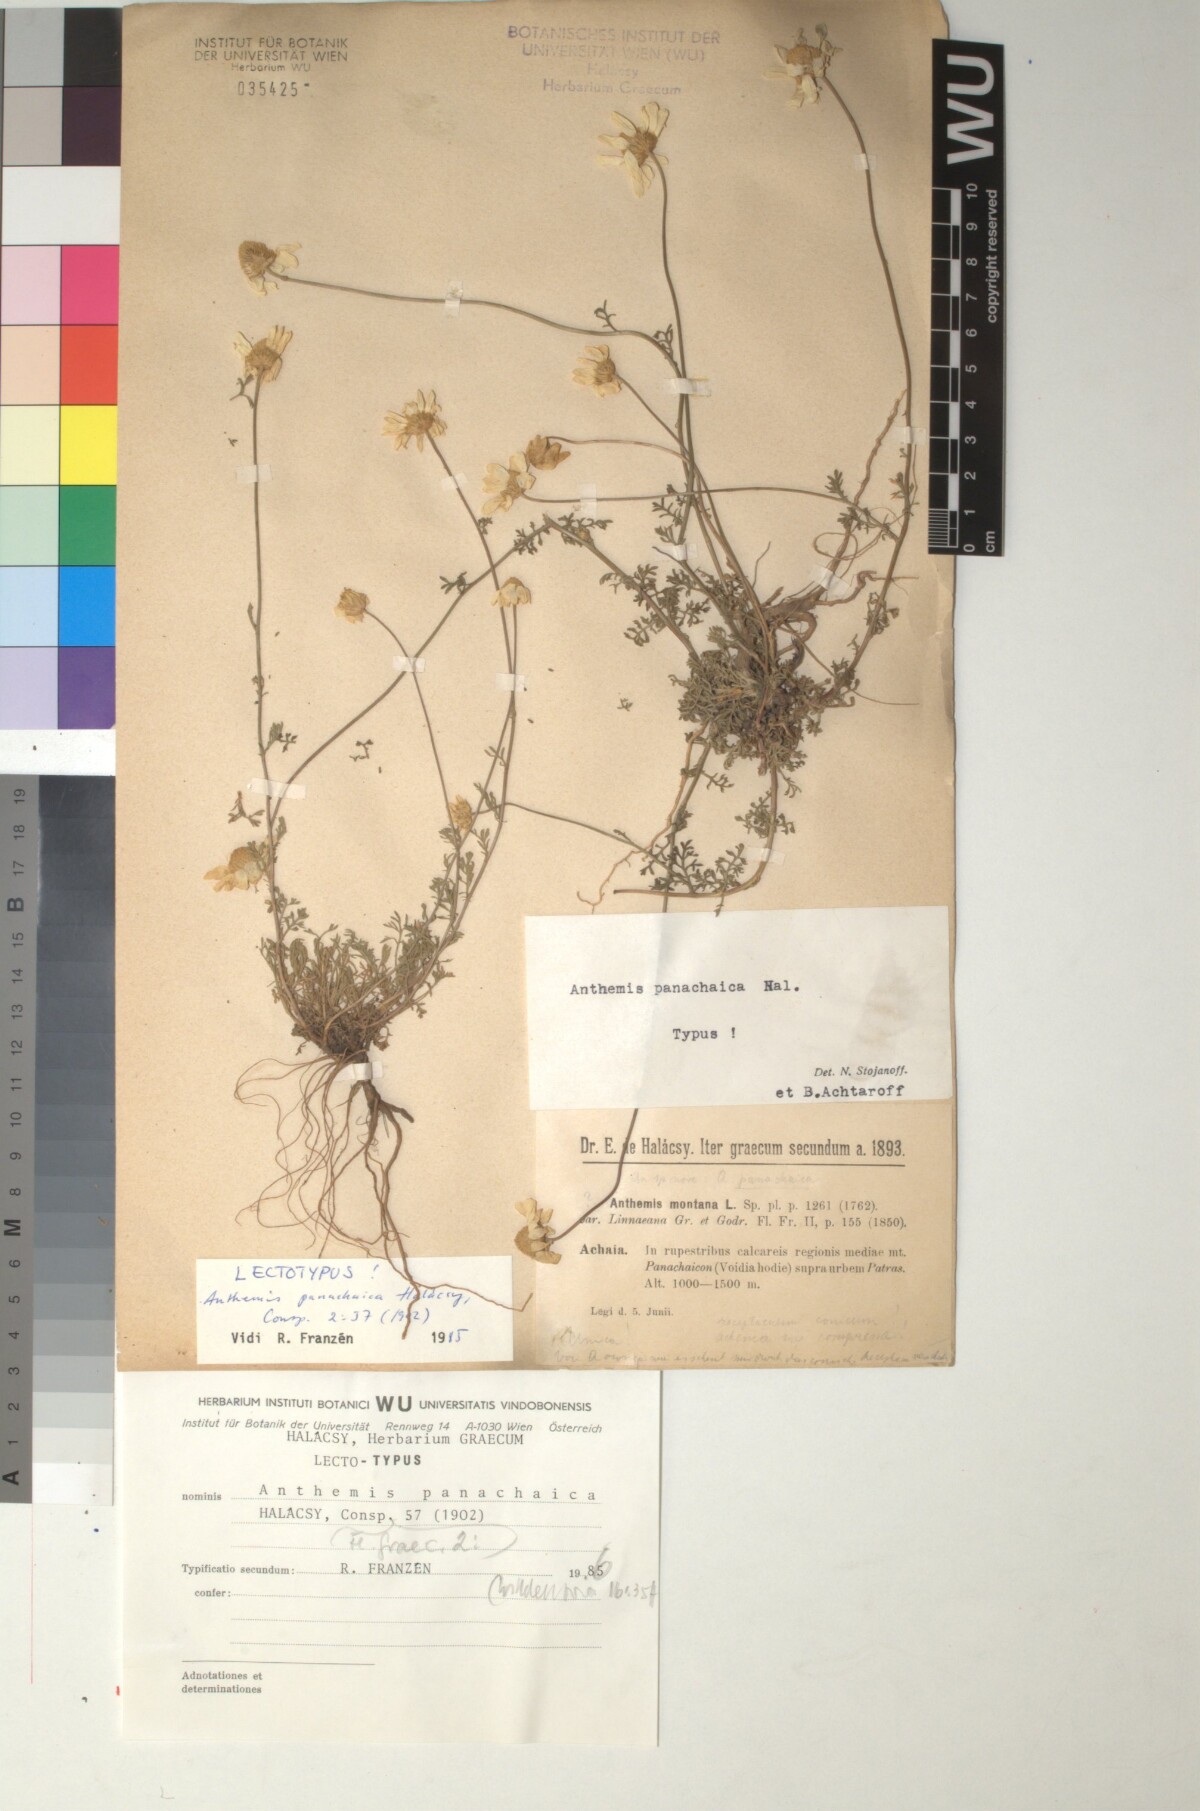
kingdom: Plantae
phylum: Tracheophyta
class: Magnoliopsida
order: Asterales
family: Asteraceae
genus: Anthemis
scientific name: Anthemis cretica
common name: Mountain dog-daisy
